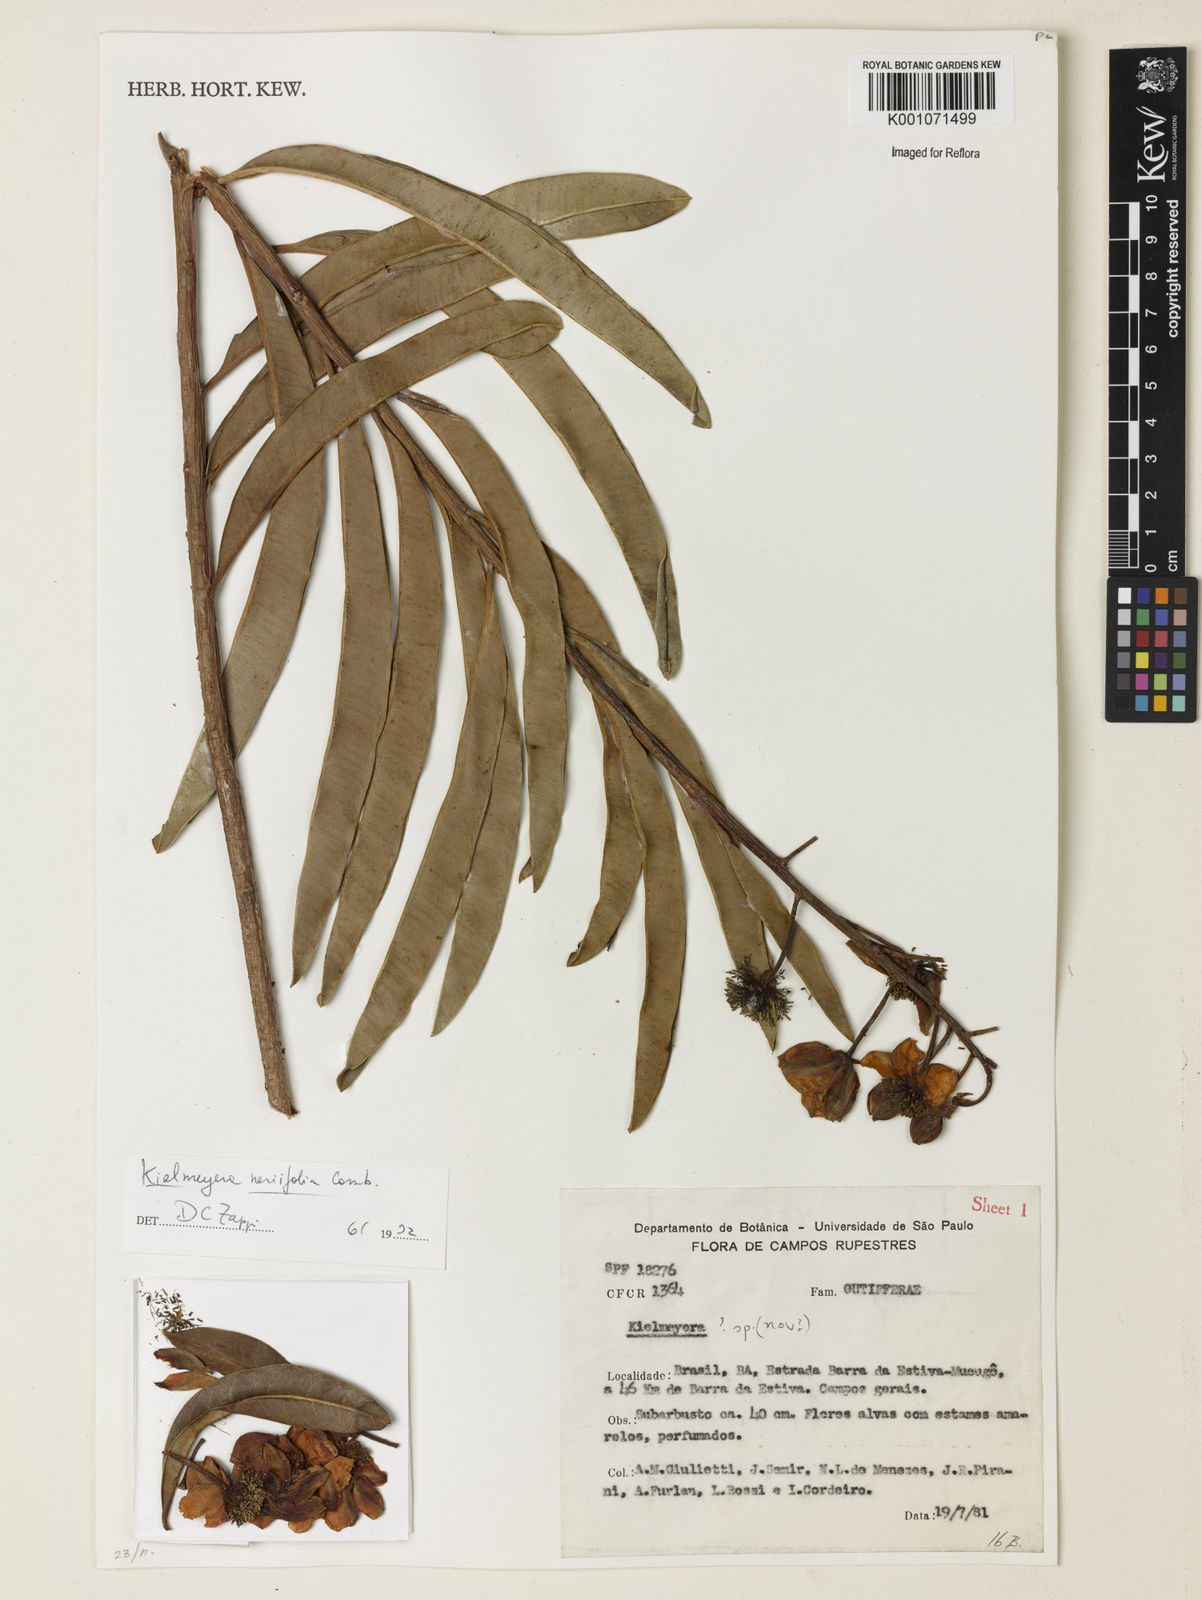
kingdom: Plantae
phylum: Tracheophyta
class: Magnoliopsida
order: Malpighiales
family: Calophyllaceae
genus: Kielmeyera
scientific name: Kielmeyera abdita
